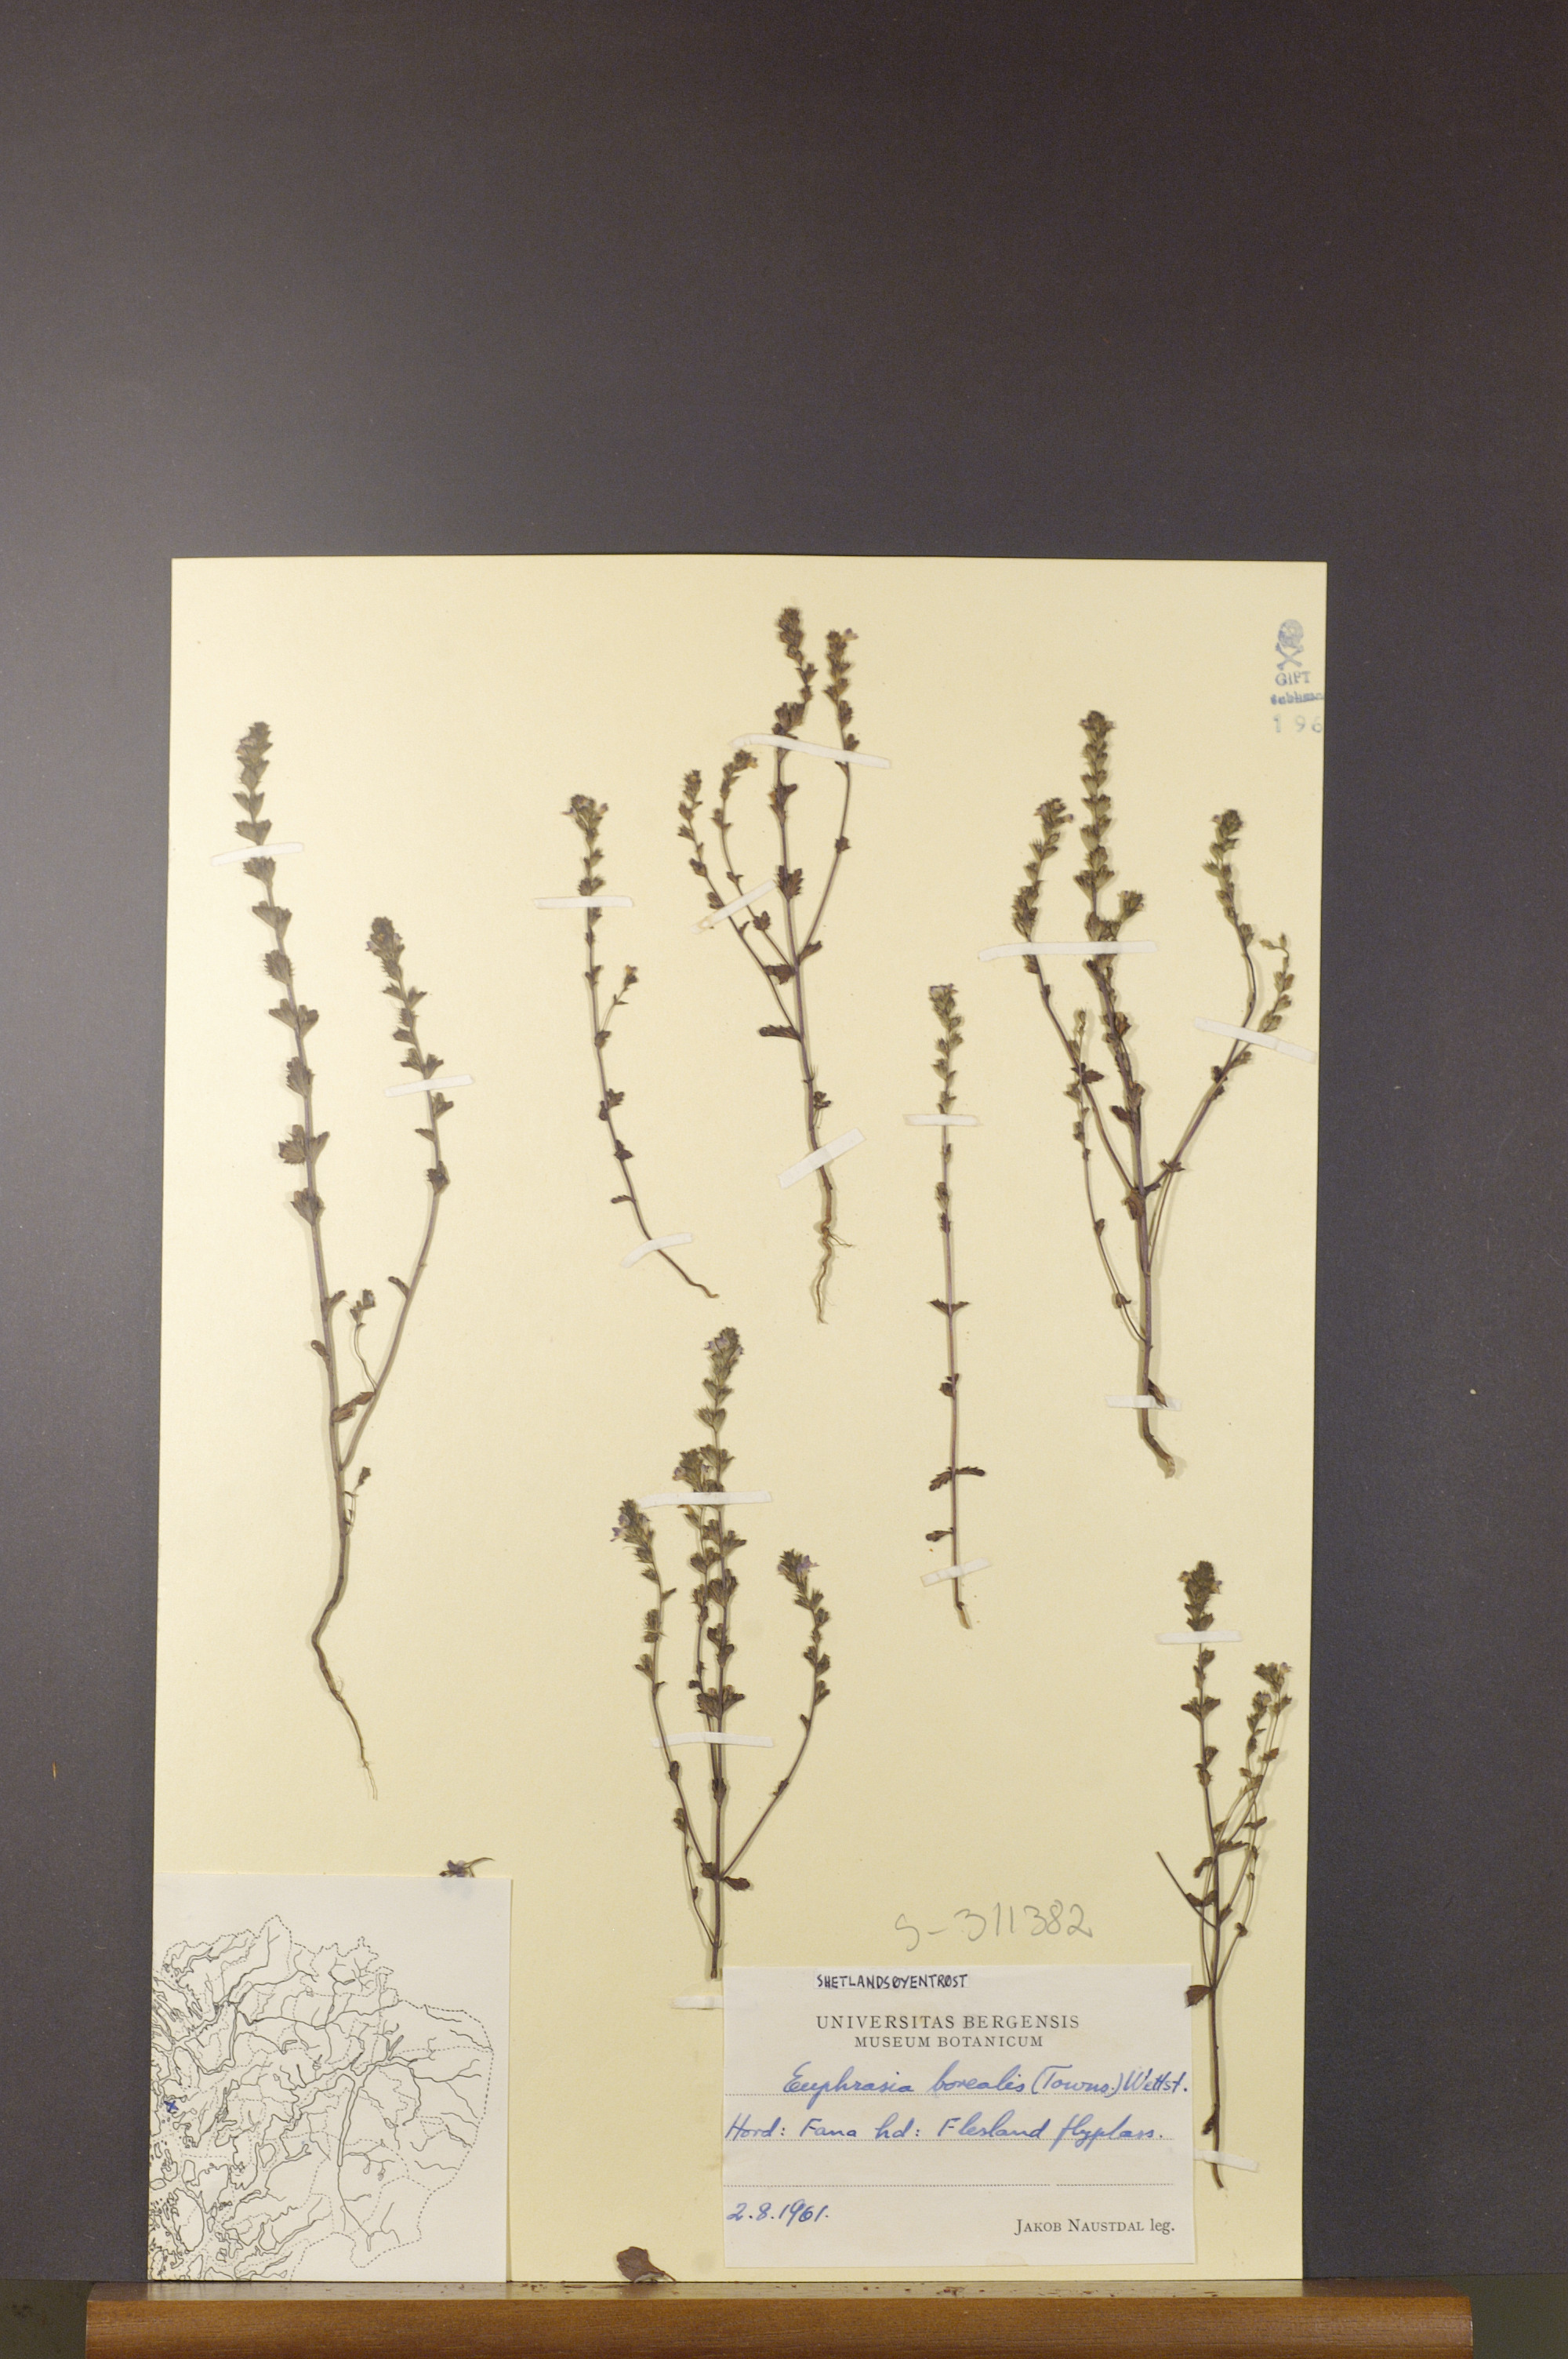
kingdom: Plantae
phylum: Tracheophyta
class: Magnoliopsida
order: Lamiales
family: Orobanchaceae
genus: Euphrasia
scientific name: Euphrasia arctica
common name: An eyebright
